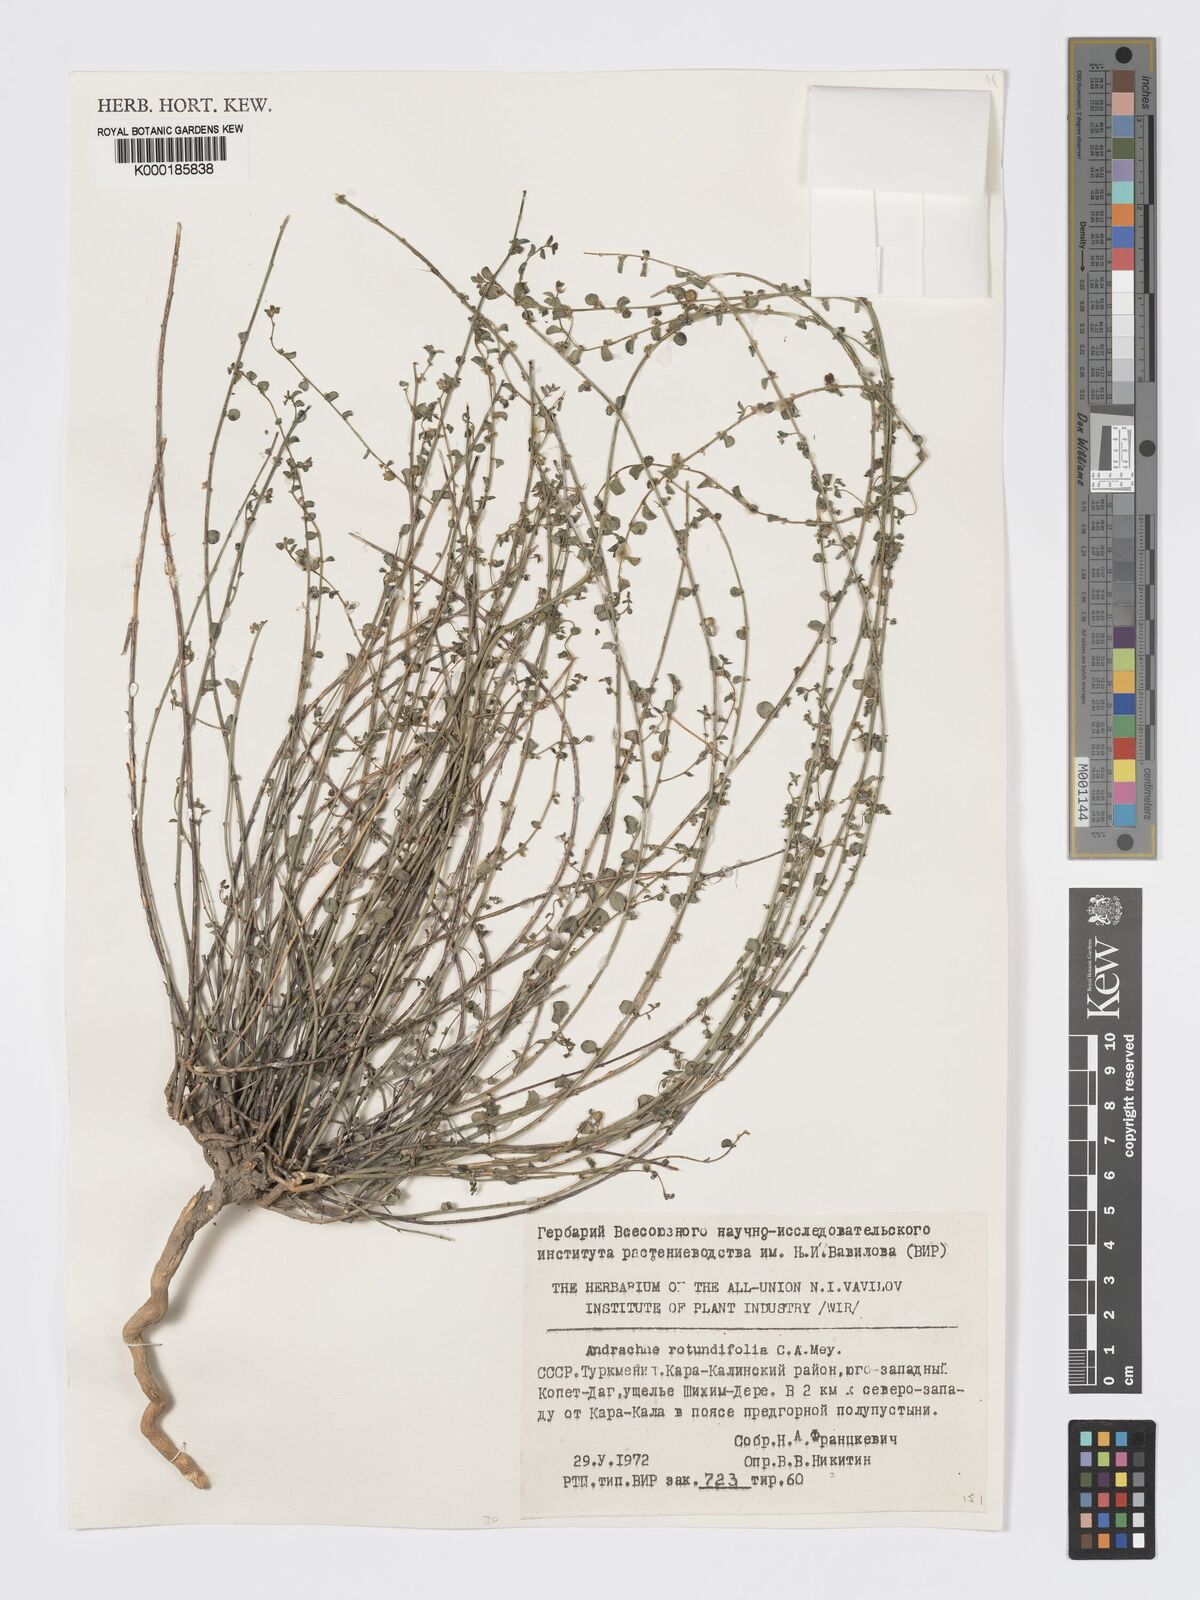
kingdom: Plantae
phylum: Tracheophyta
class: Magnoliopsida
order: Malpighiales
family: Phyllanthaceae
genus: Andrachne
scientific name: Andrachne telephioides
